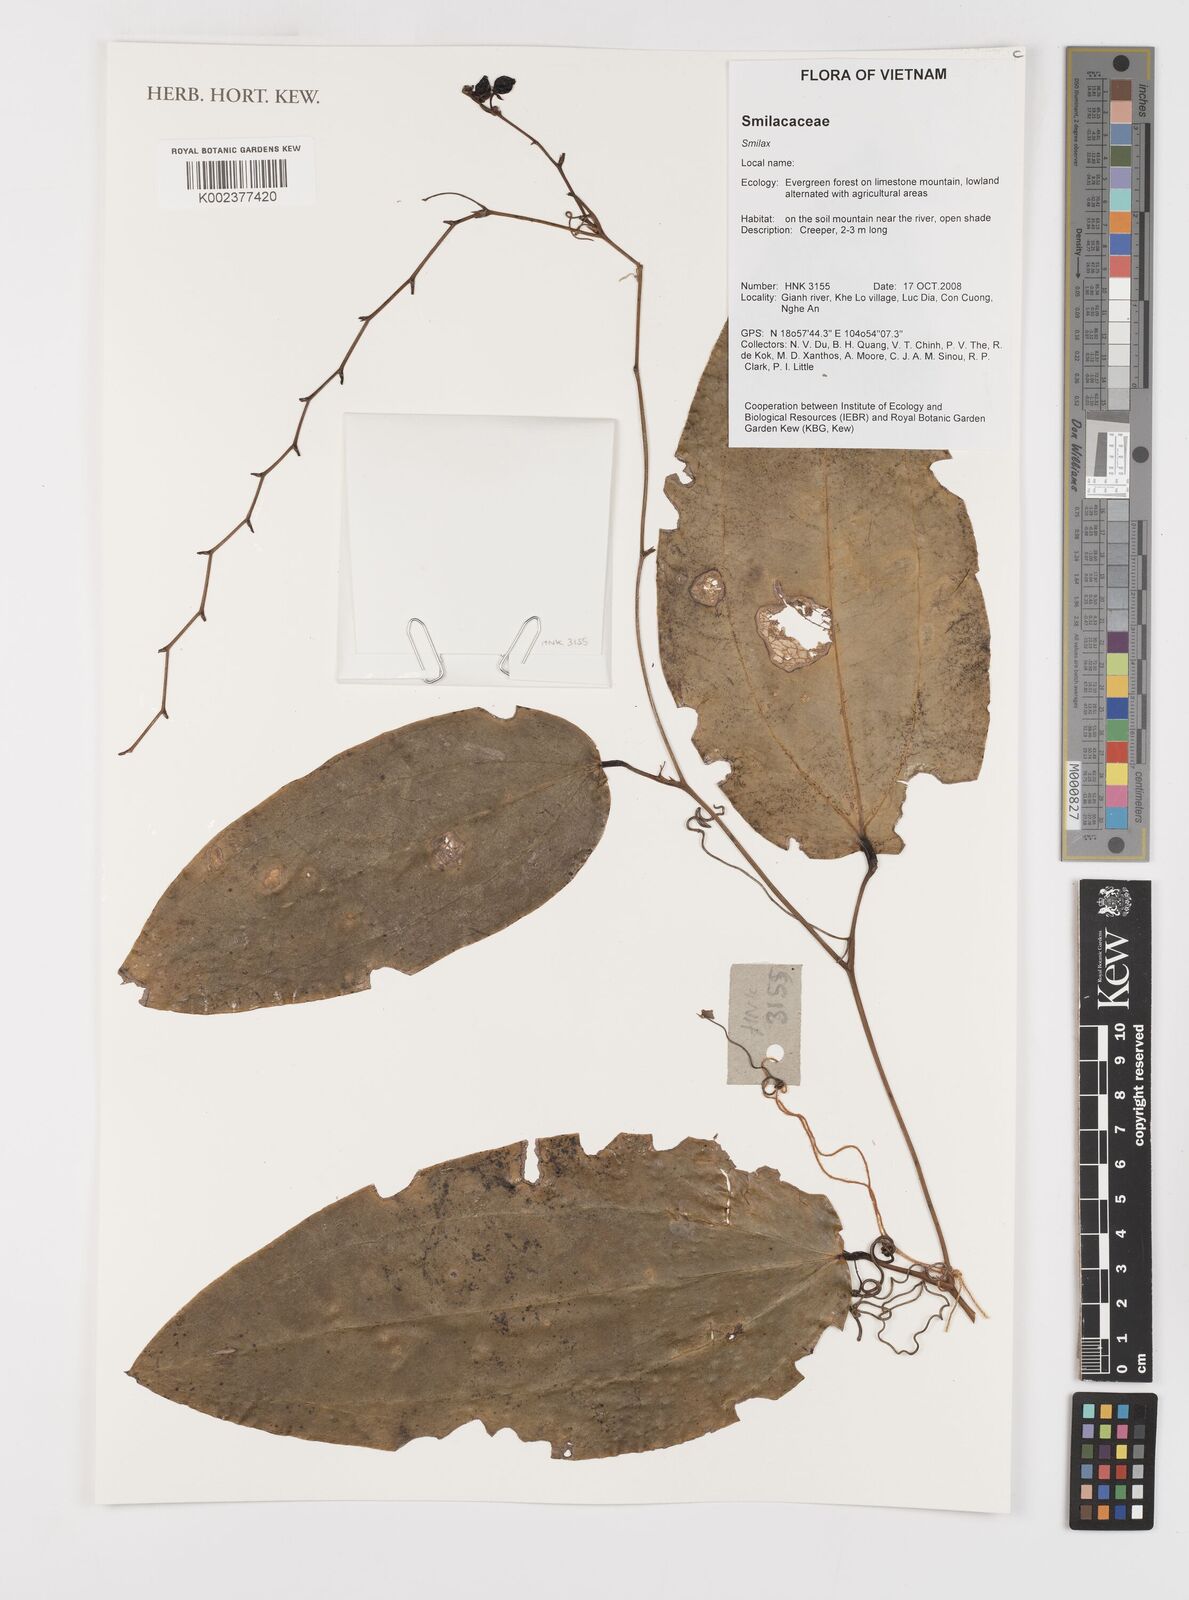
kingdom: Plantae
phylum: Tracheophyta
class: Liliopsida
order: Liliales
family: Smilacaceae
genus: Smilax
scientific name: Smilax
